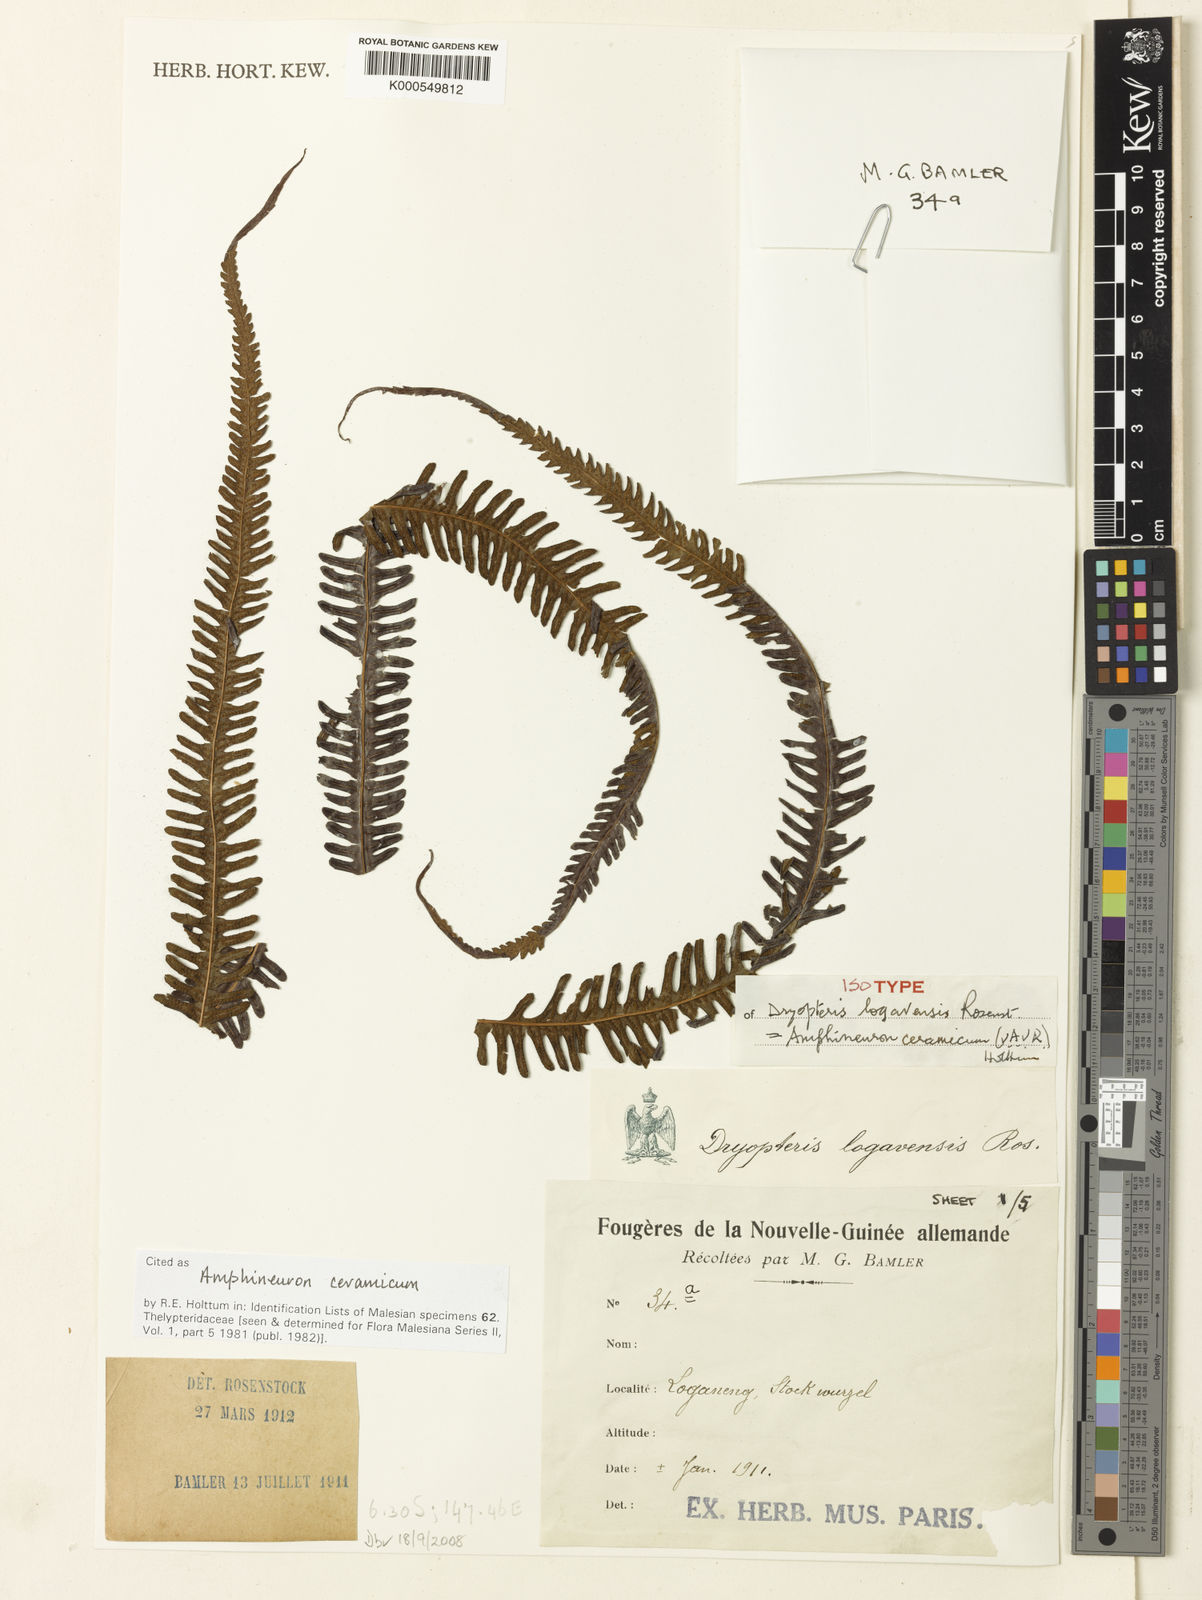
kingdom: Plantae
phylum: Tracheophyta
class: Polypodiopsida
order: Polypodiales
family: Thelypteridaceae
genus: Mesopteris
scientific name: Mesopteris ceramica
